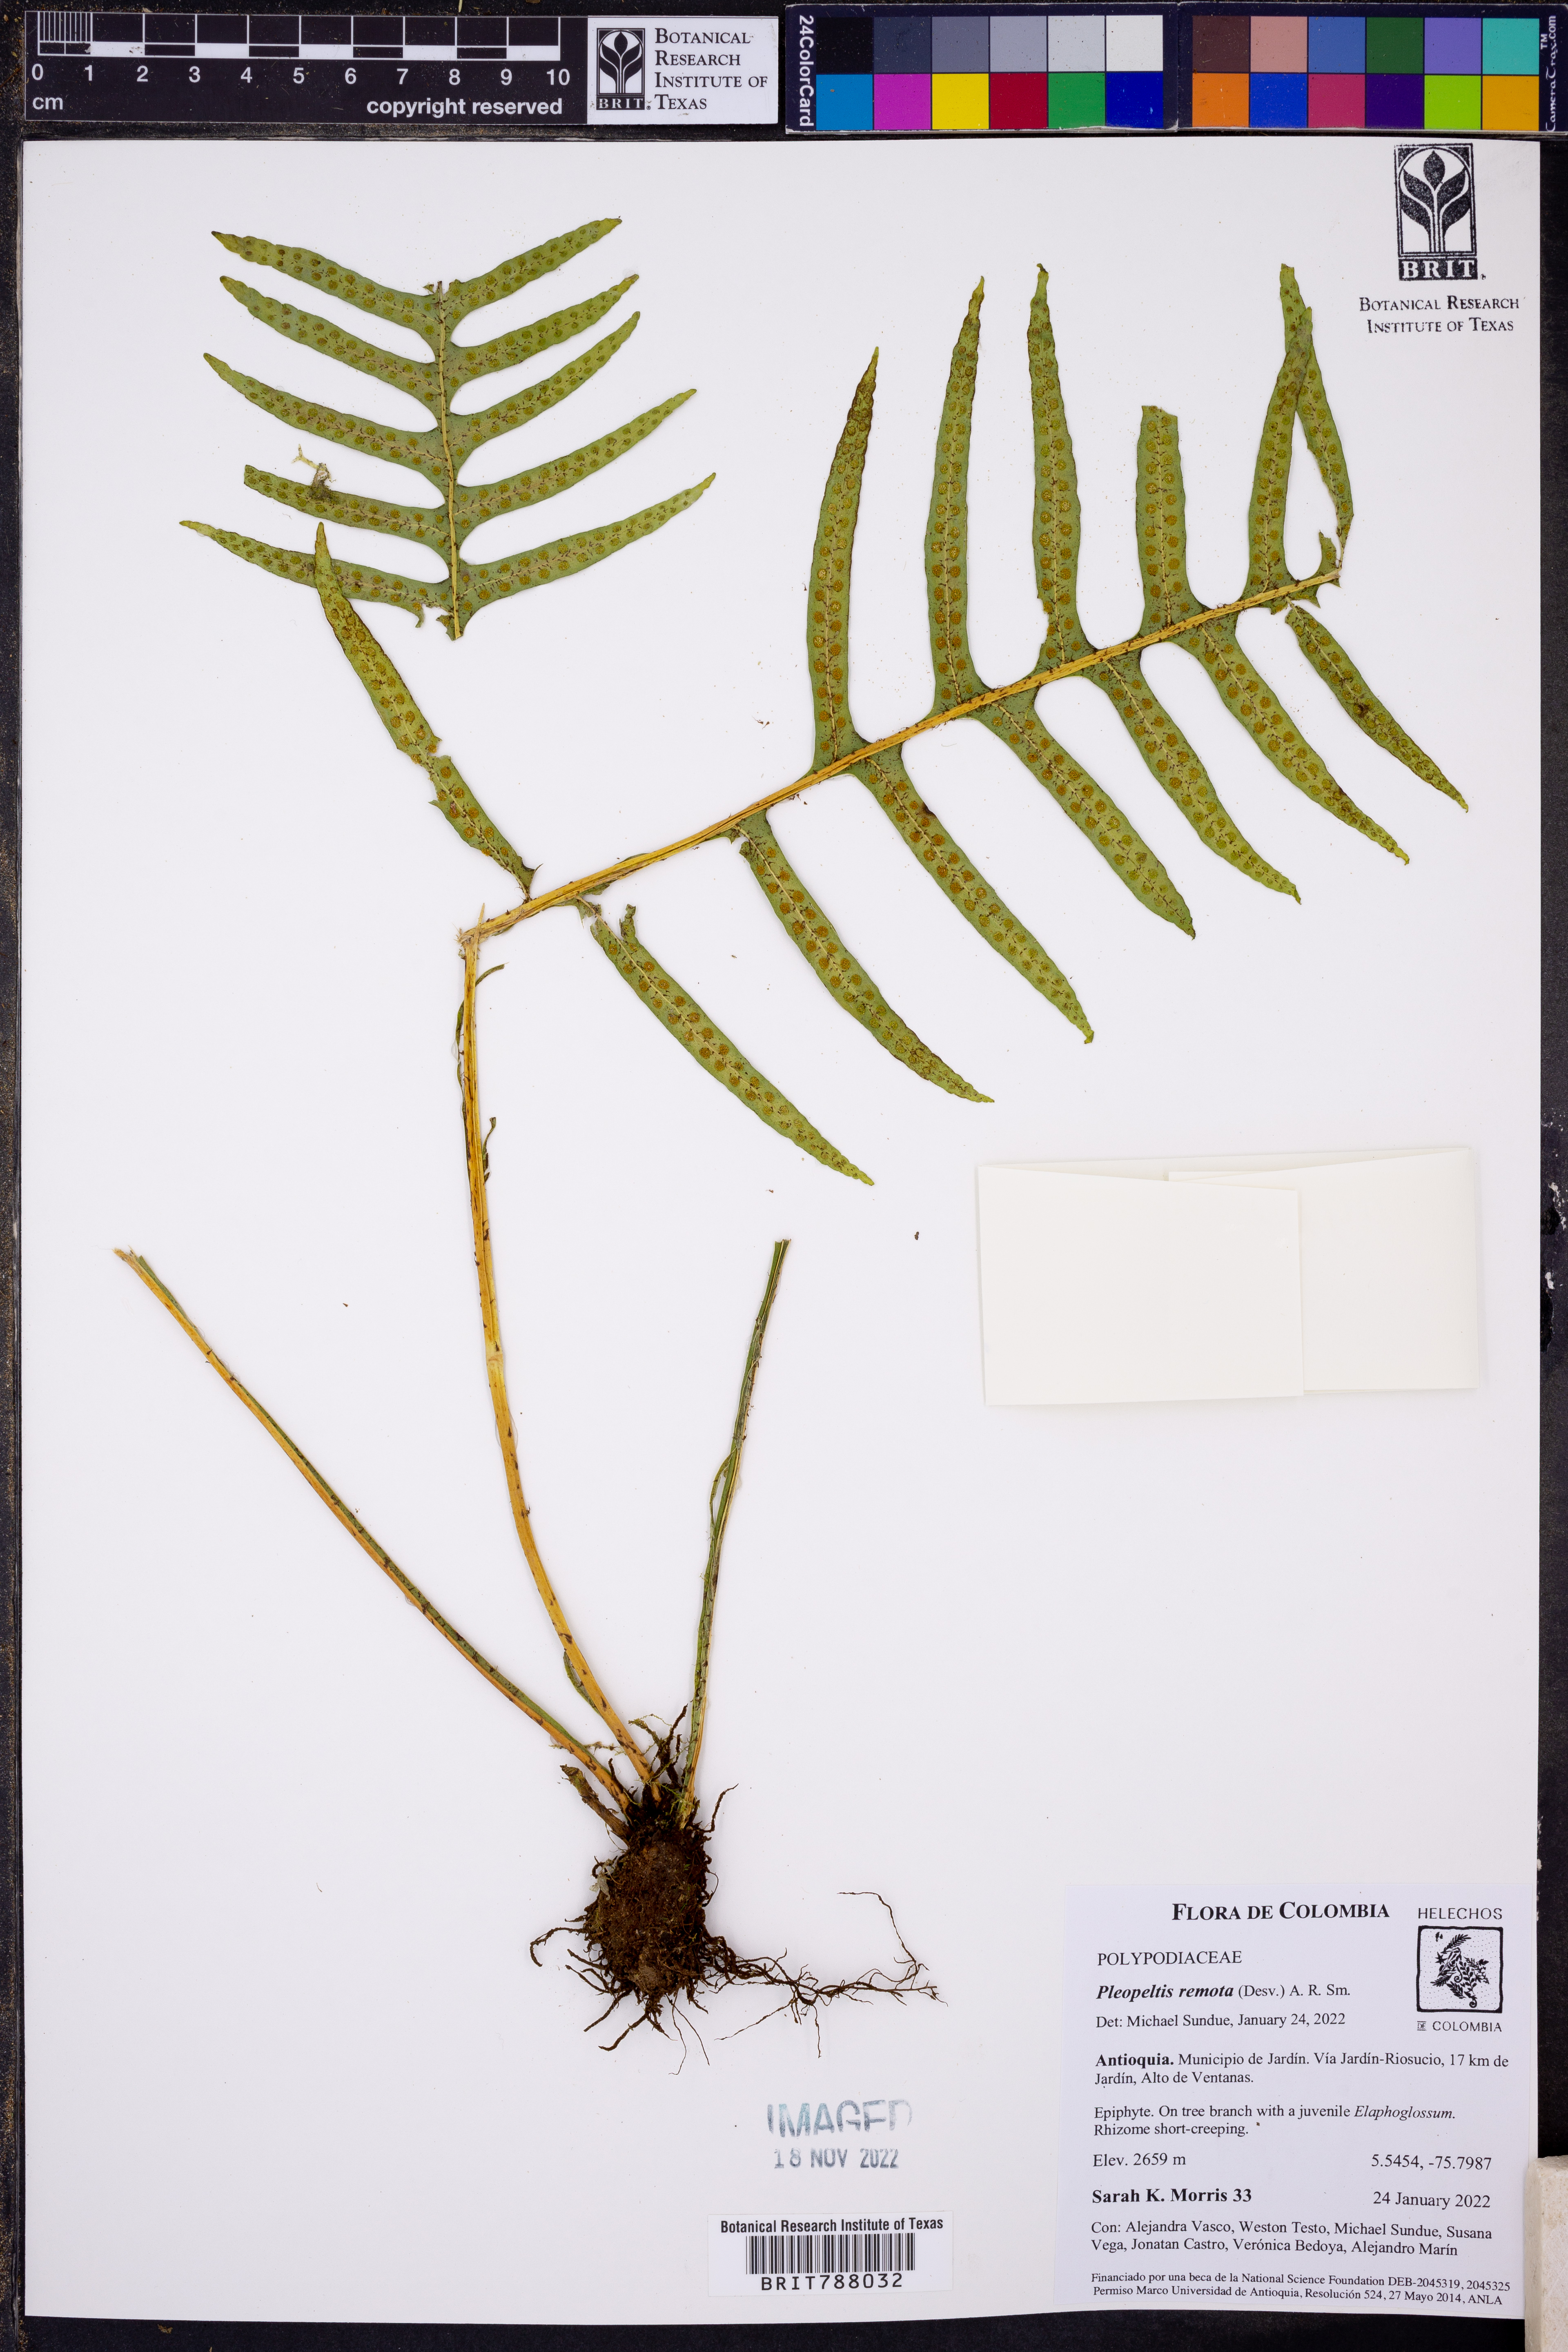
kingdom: Plantae
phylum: Tracheophyta
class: Polypodiopsida
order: Polypodiales
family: Polypodiaceae
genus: Pleopeltis
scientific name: Pleopeltis remota
